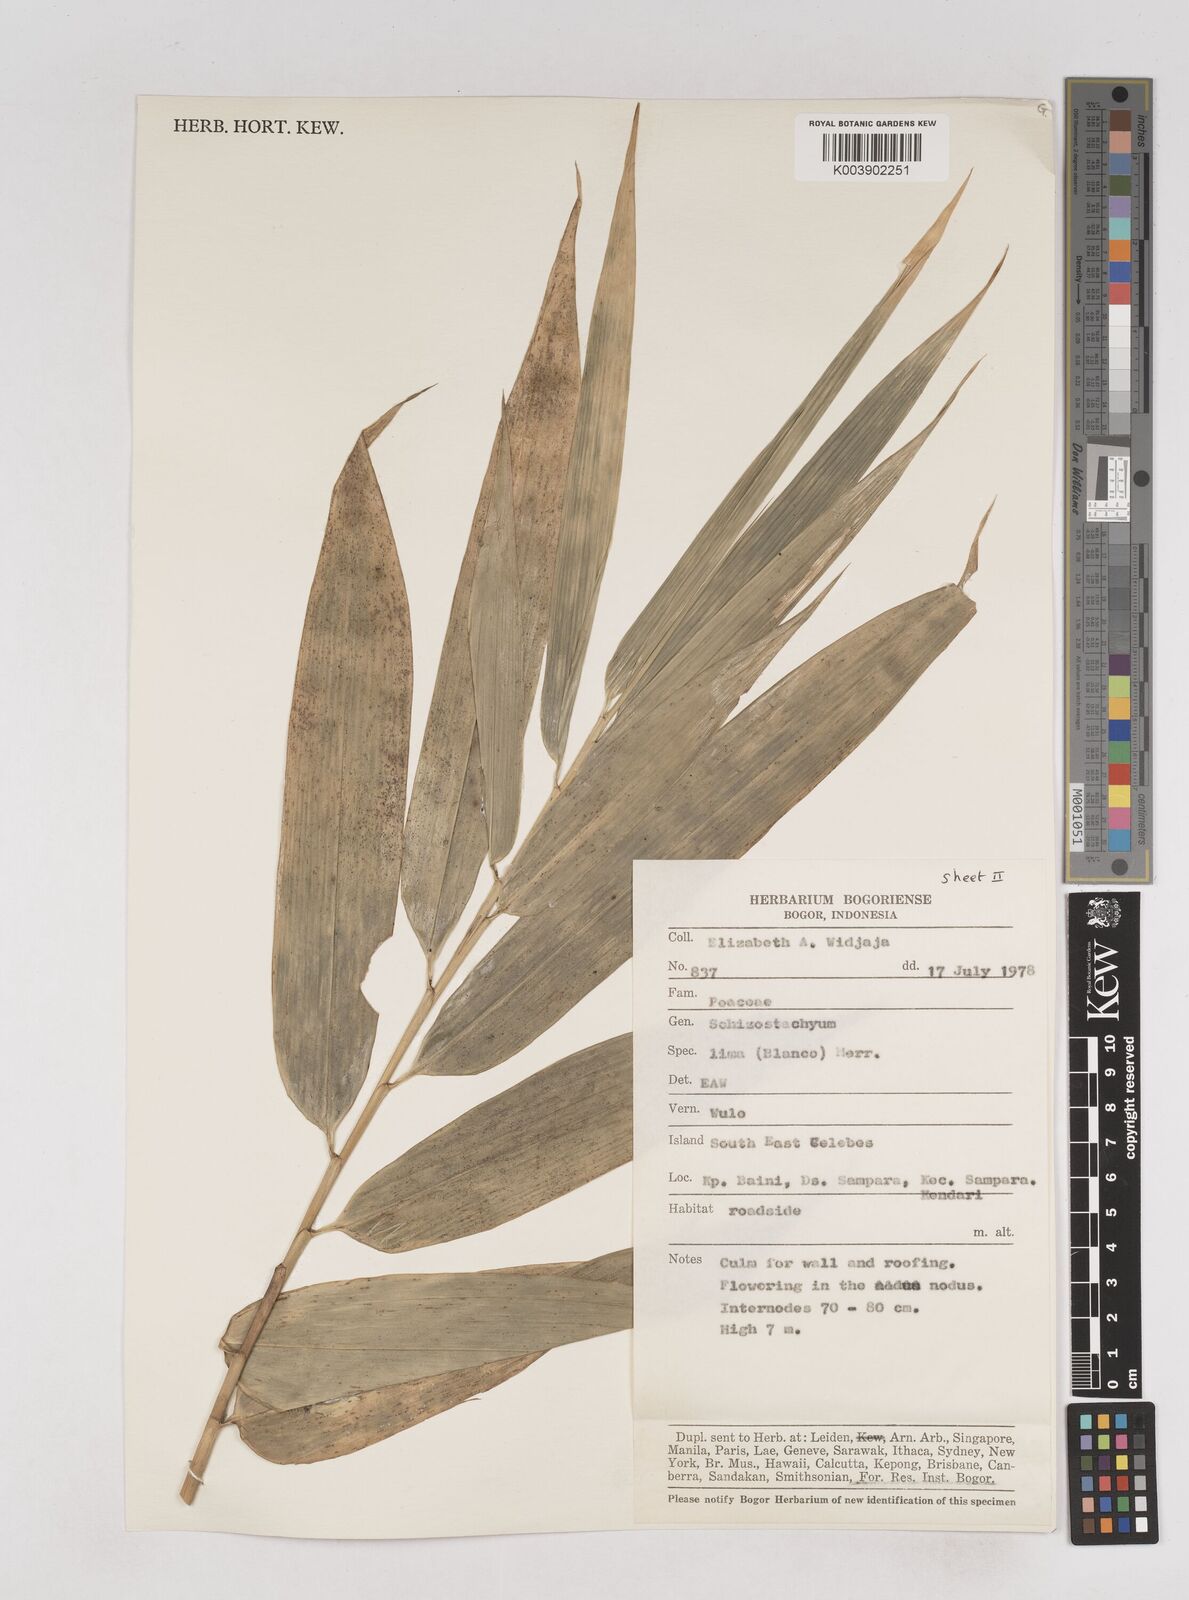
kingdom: Plantae
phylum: Tracheophyta
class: Liliopsida
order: Poales
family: Poaceae
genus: Schizostachyum
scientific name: Schizostachyum lima
